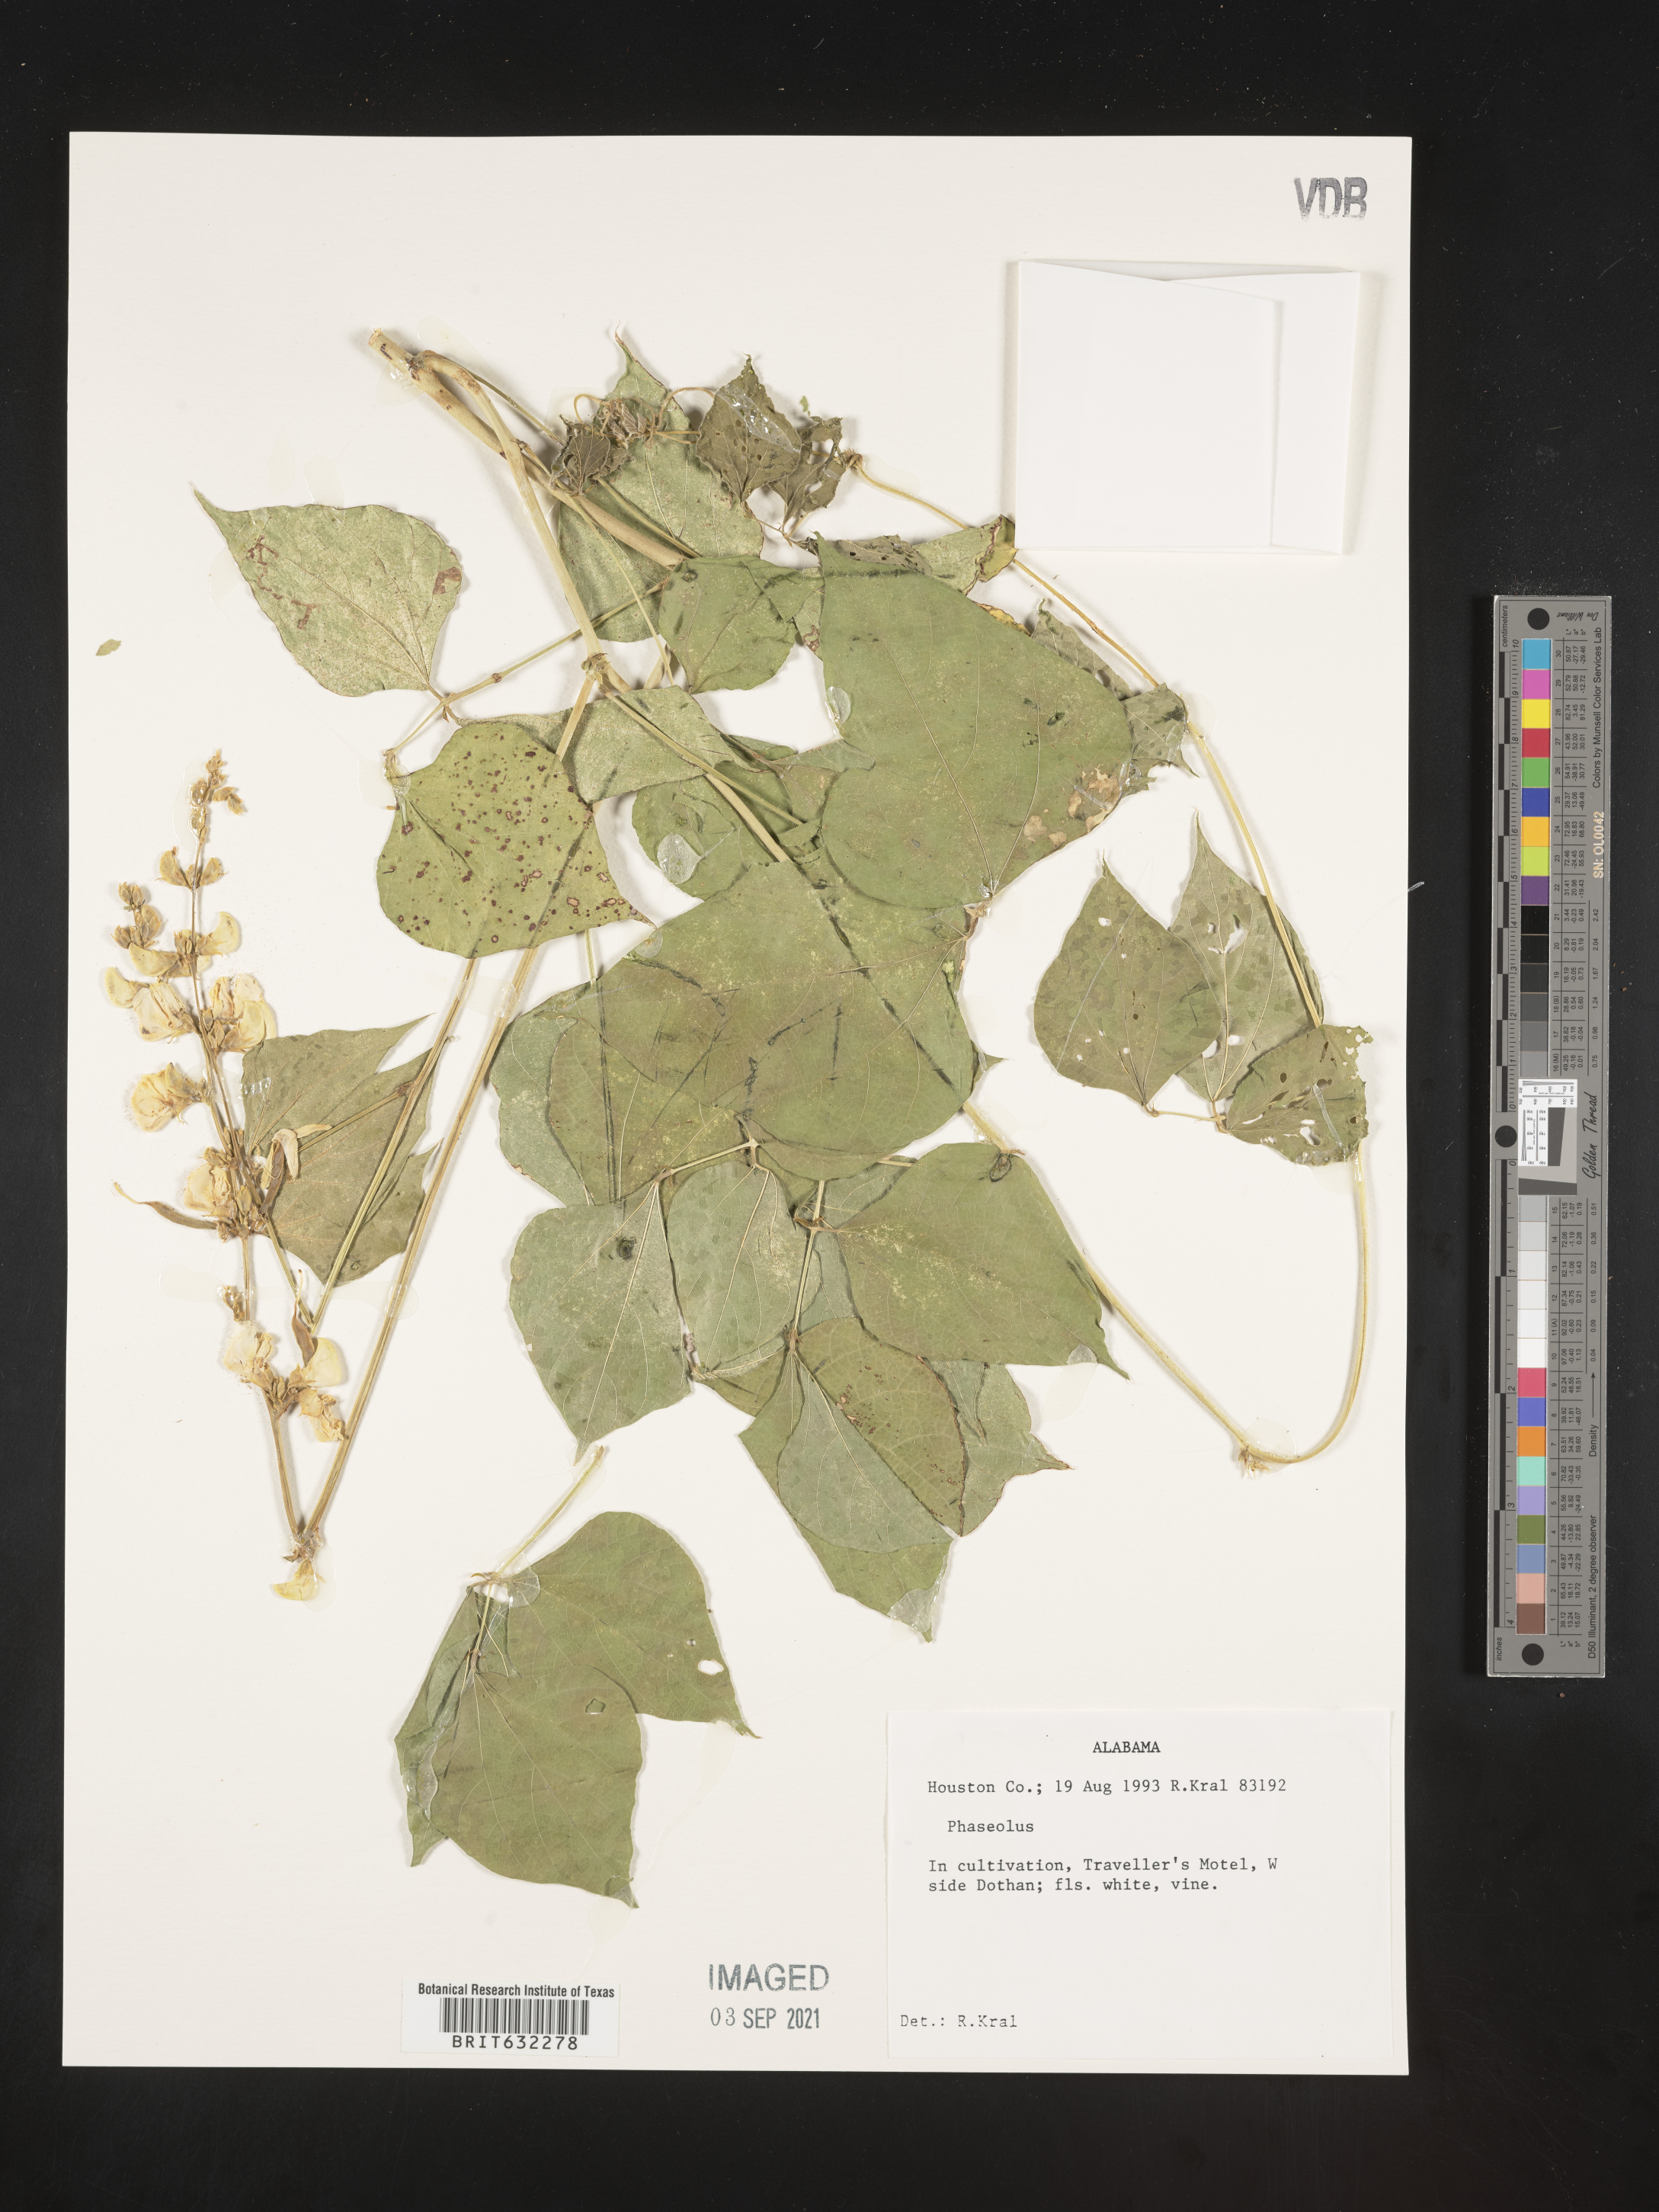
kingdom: Plantae
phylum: Tracheophyta
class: Magnoliopsida
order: Fabales
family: Fabaceae
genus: Phaseolus
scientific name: Phaseolus
